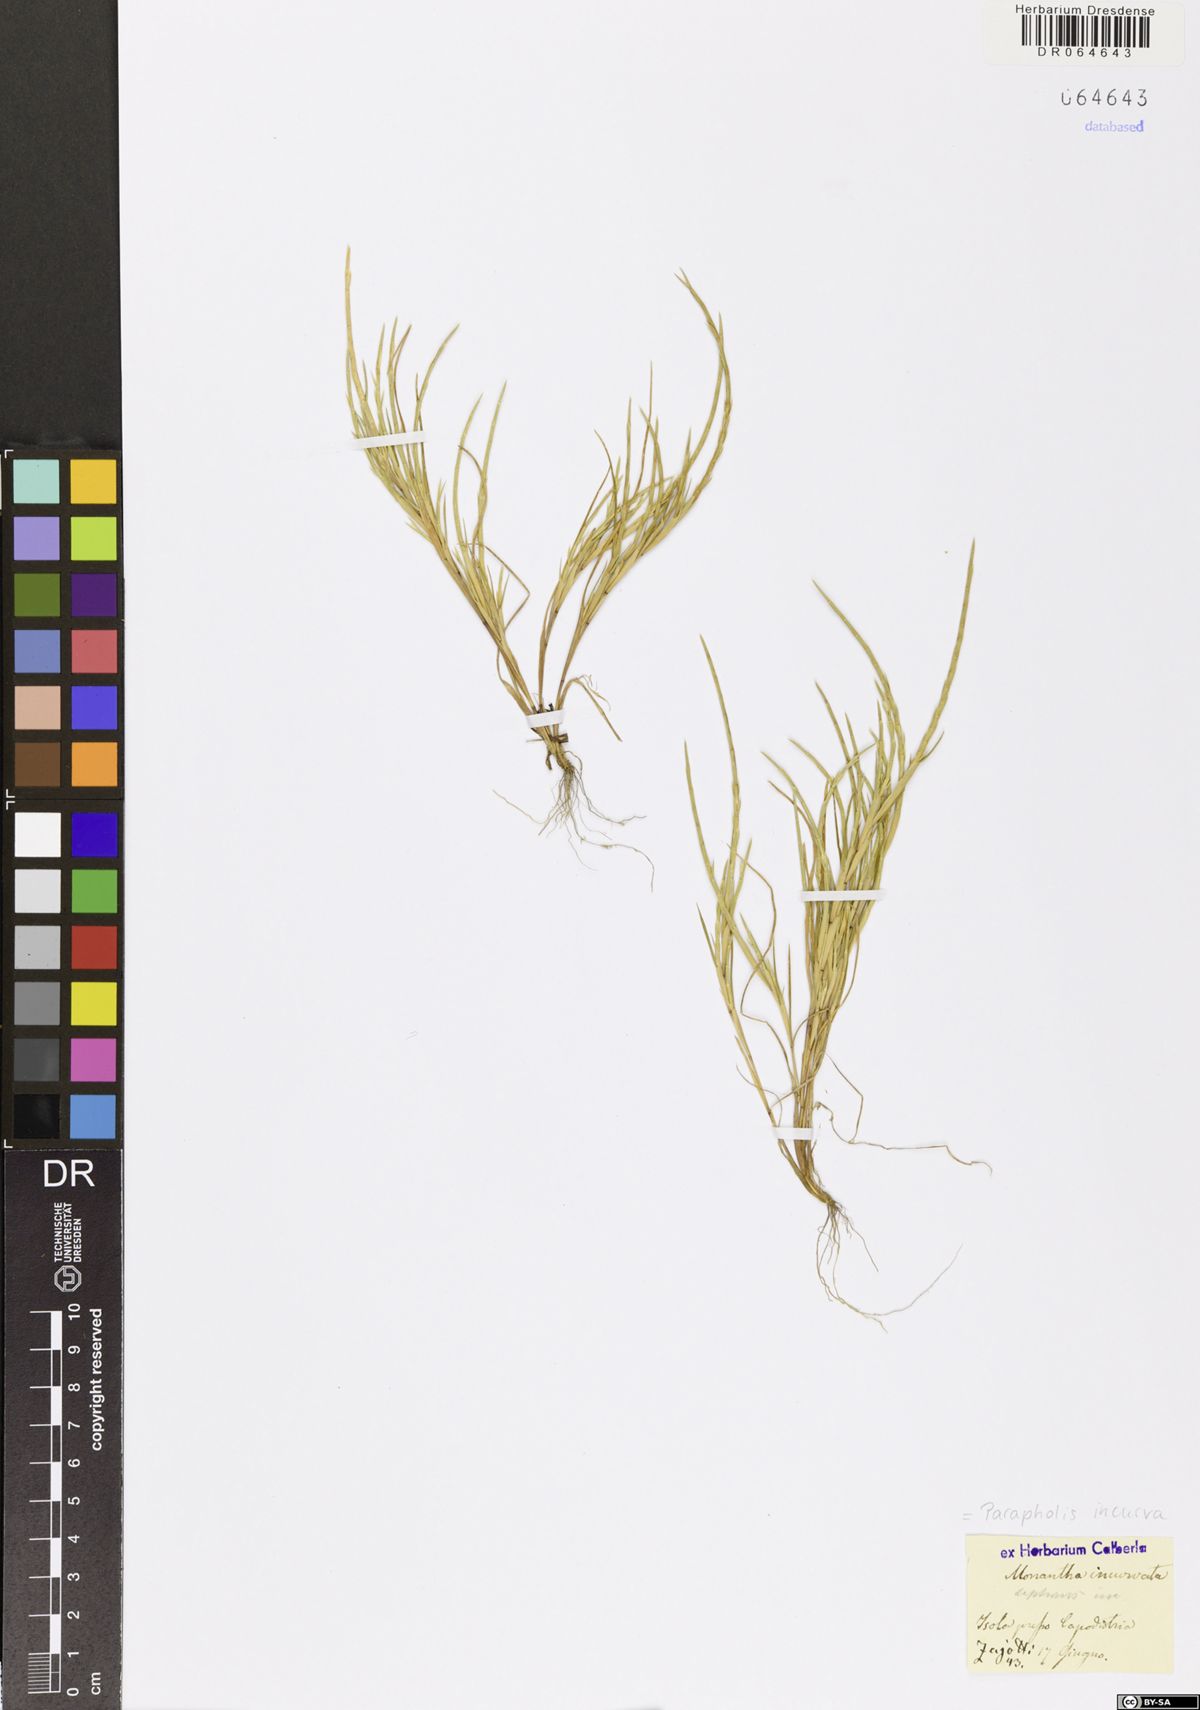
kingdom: Plantae
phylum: Tracheophyta
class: Liliopsida
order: Poales
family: Poaceae
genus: Parapholis
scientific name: Parapholis incurva
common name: Curved sicklegrass
